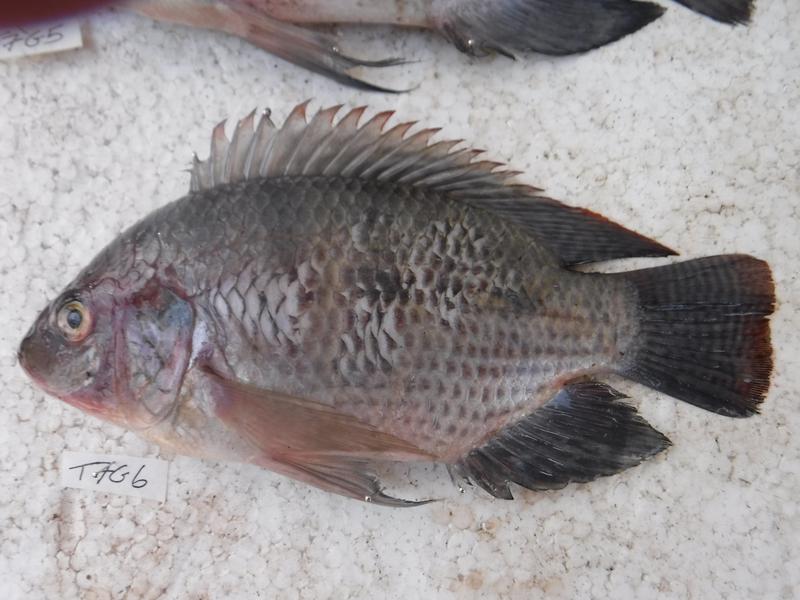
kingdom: Animalia
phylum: Chordata
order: Perciformes
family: Cichlidae
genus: Oreochromis
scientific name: Oreochromis urolepis
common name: Wami tilapia
